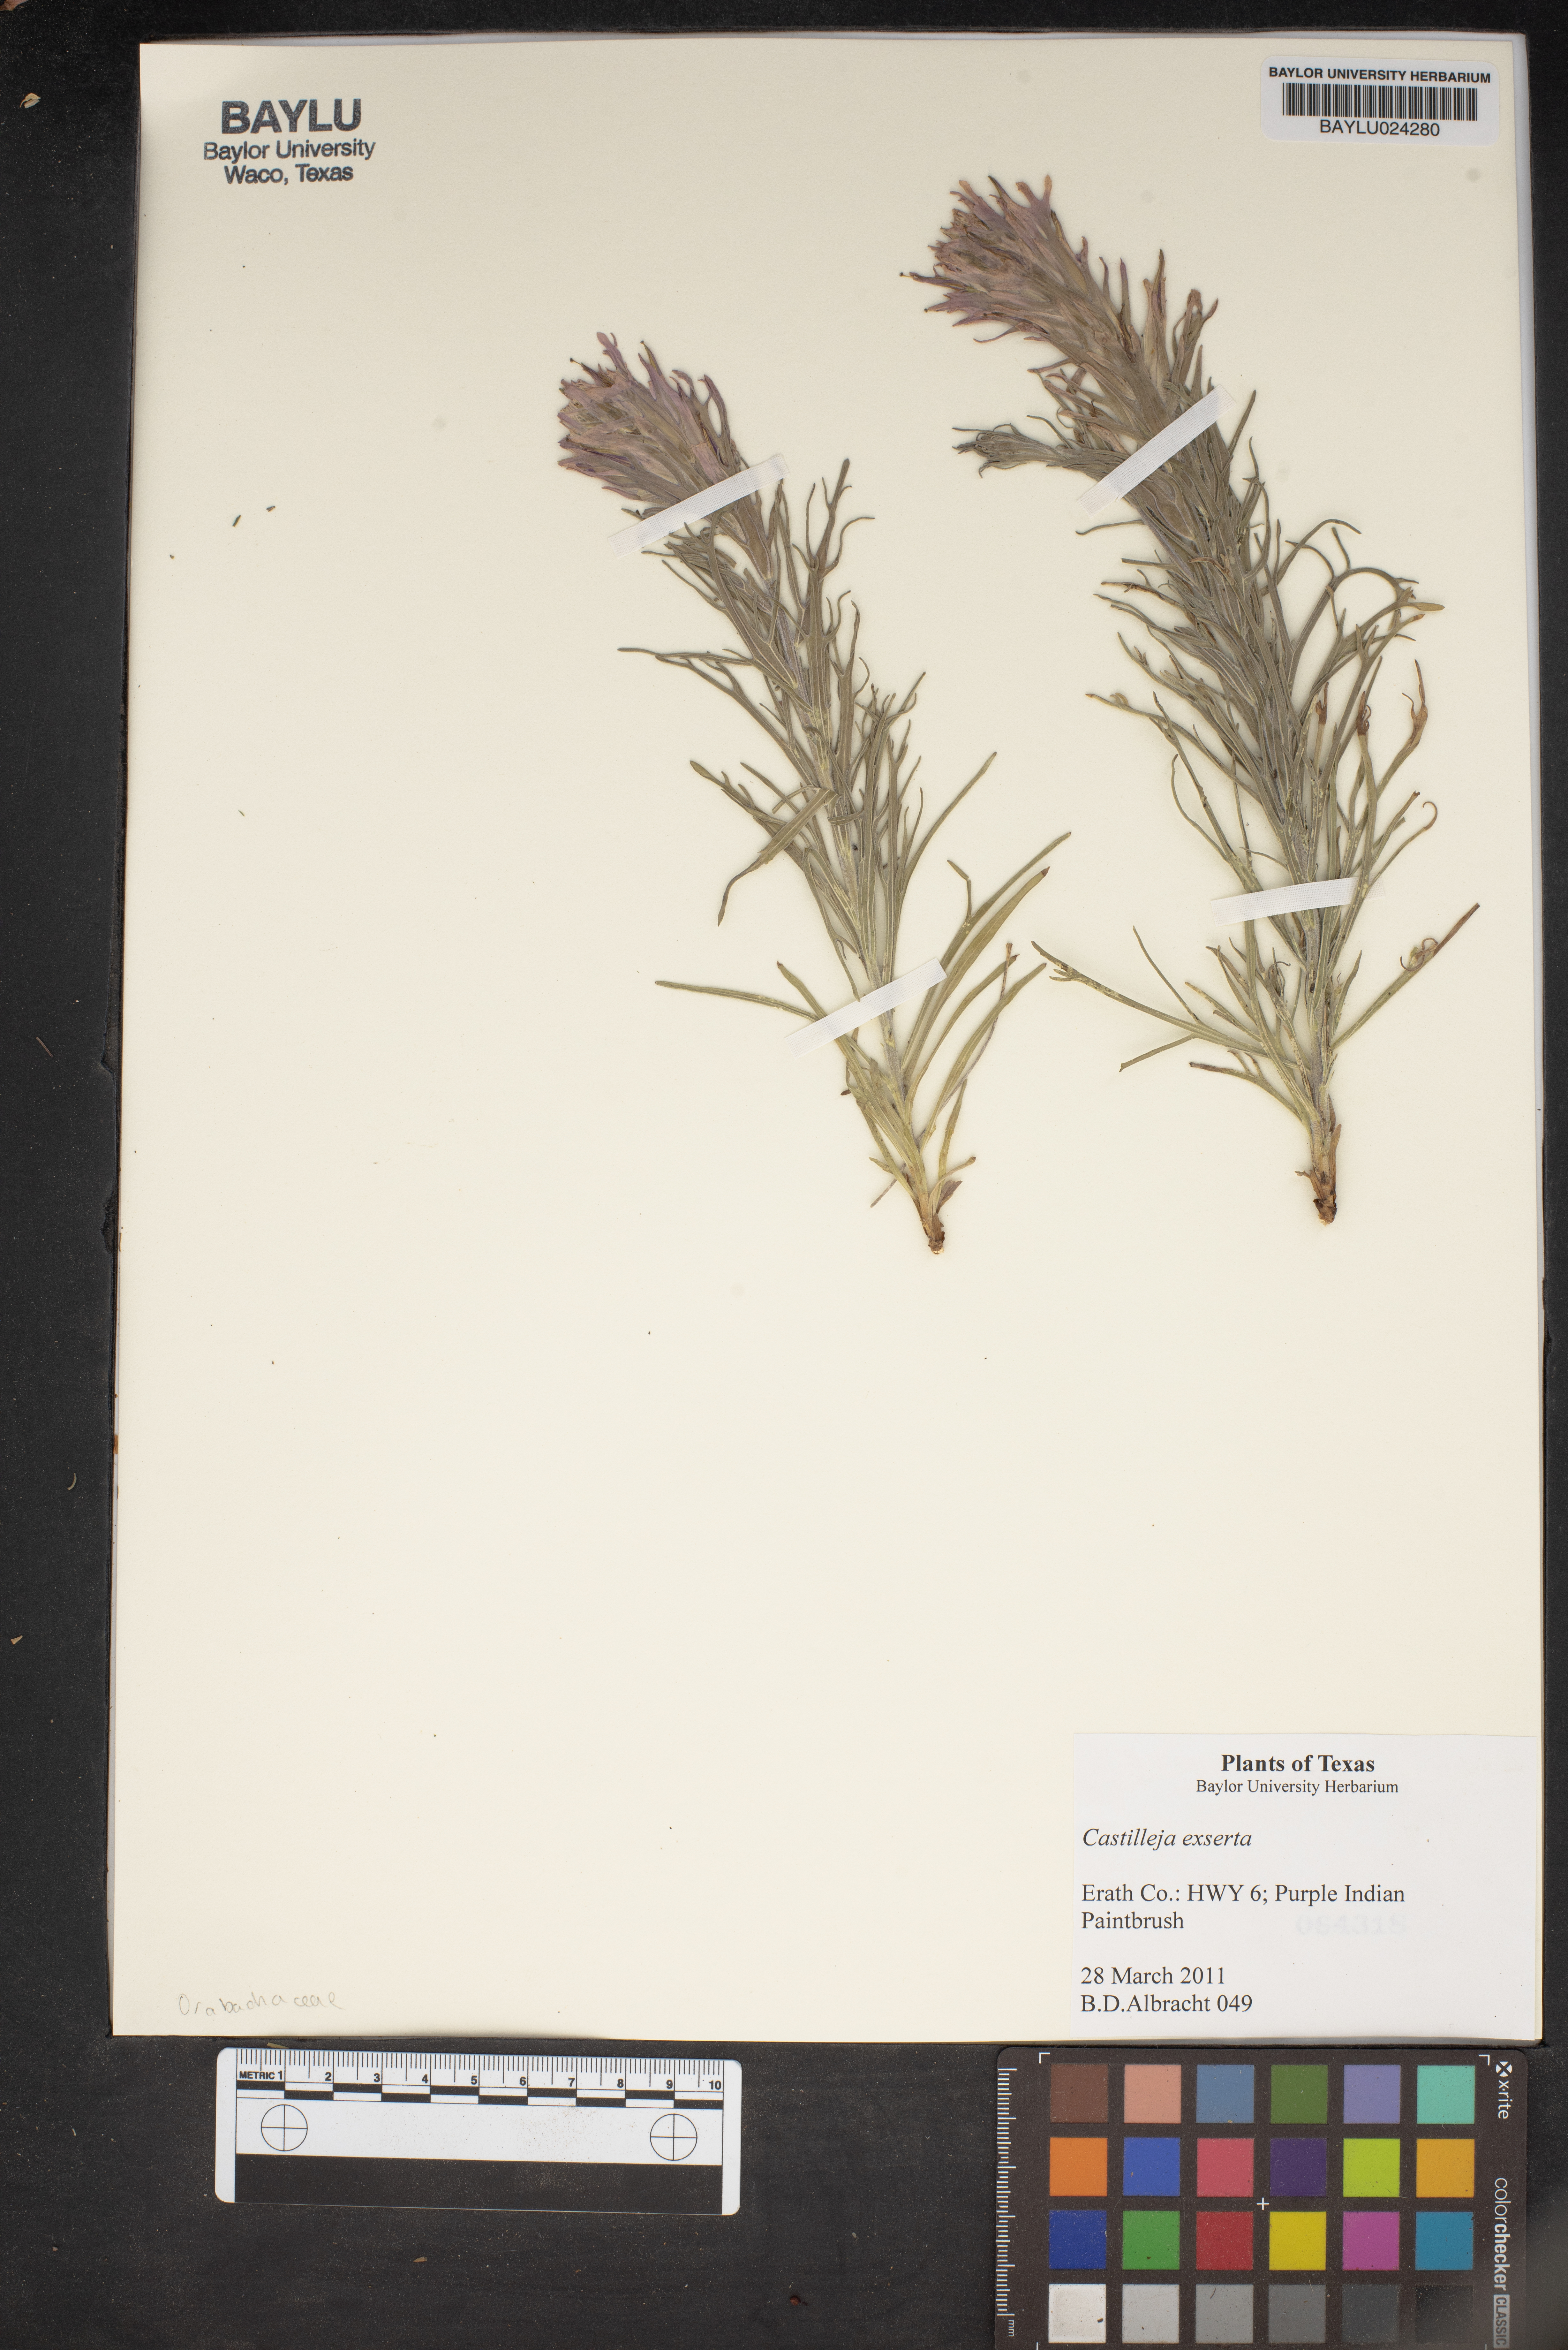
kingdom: Plantae
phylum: Tracheophyta
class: Magnoliopsida
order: Lamiales
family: Orobanchaceae
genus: Castilleja
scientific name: Castilleja exserta
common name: Purple owl-clover
